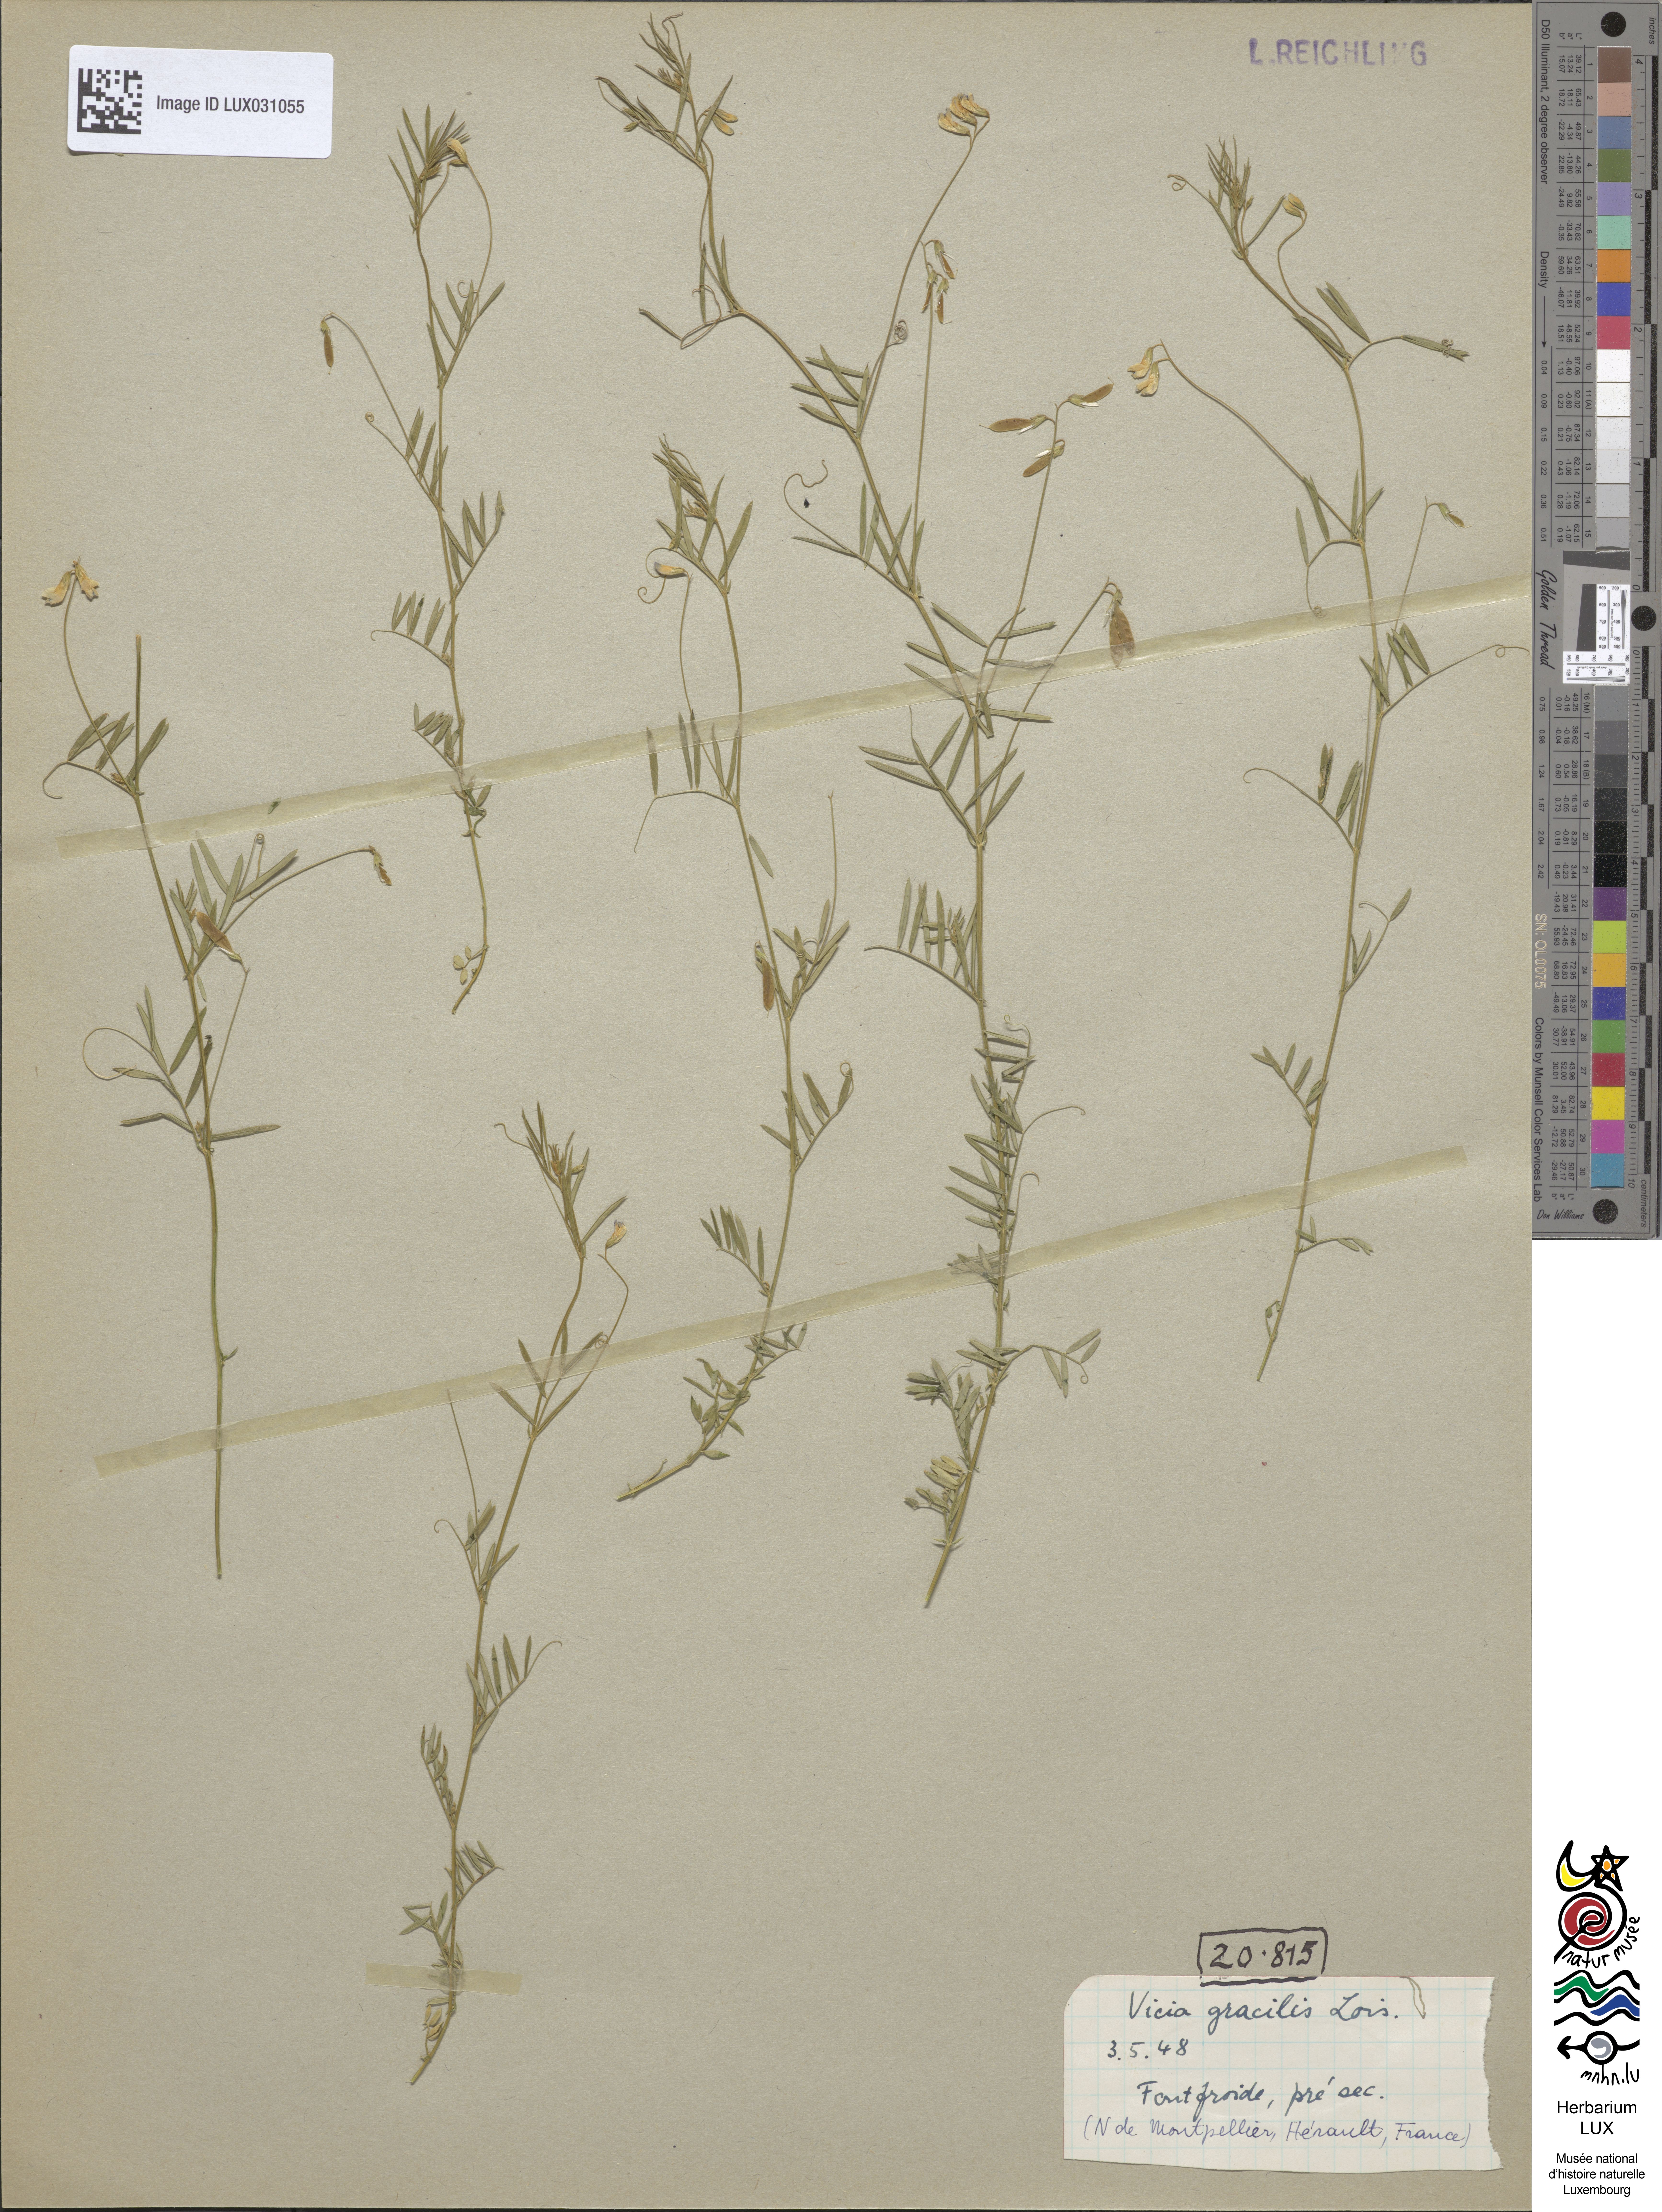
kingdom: Plantae
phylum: Tracheophyta
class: Magnoliopsida
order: Fabales
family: Fabaceae
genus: Vicia
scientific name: Vicia parviflora
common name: Slender tare
